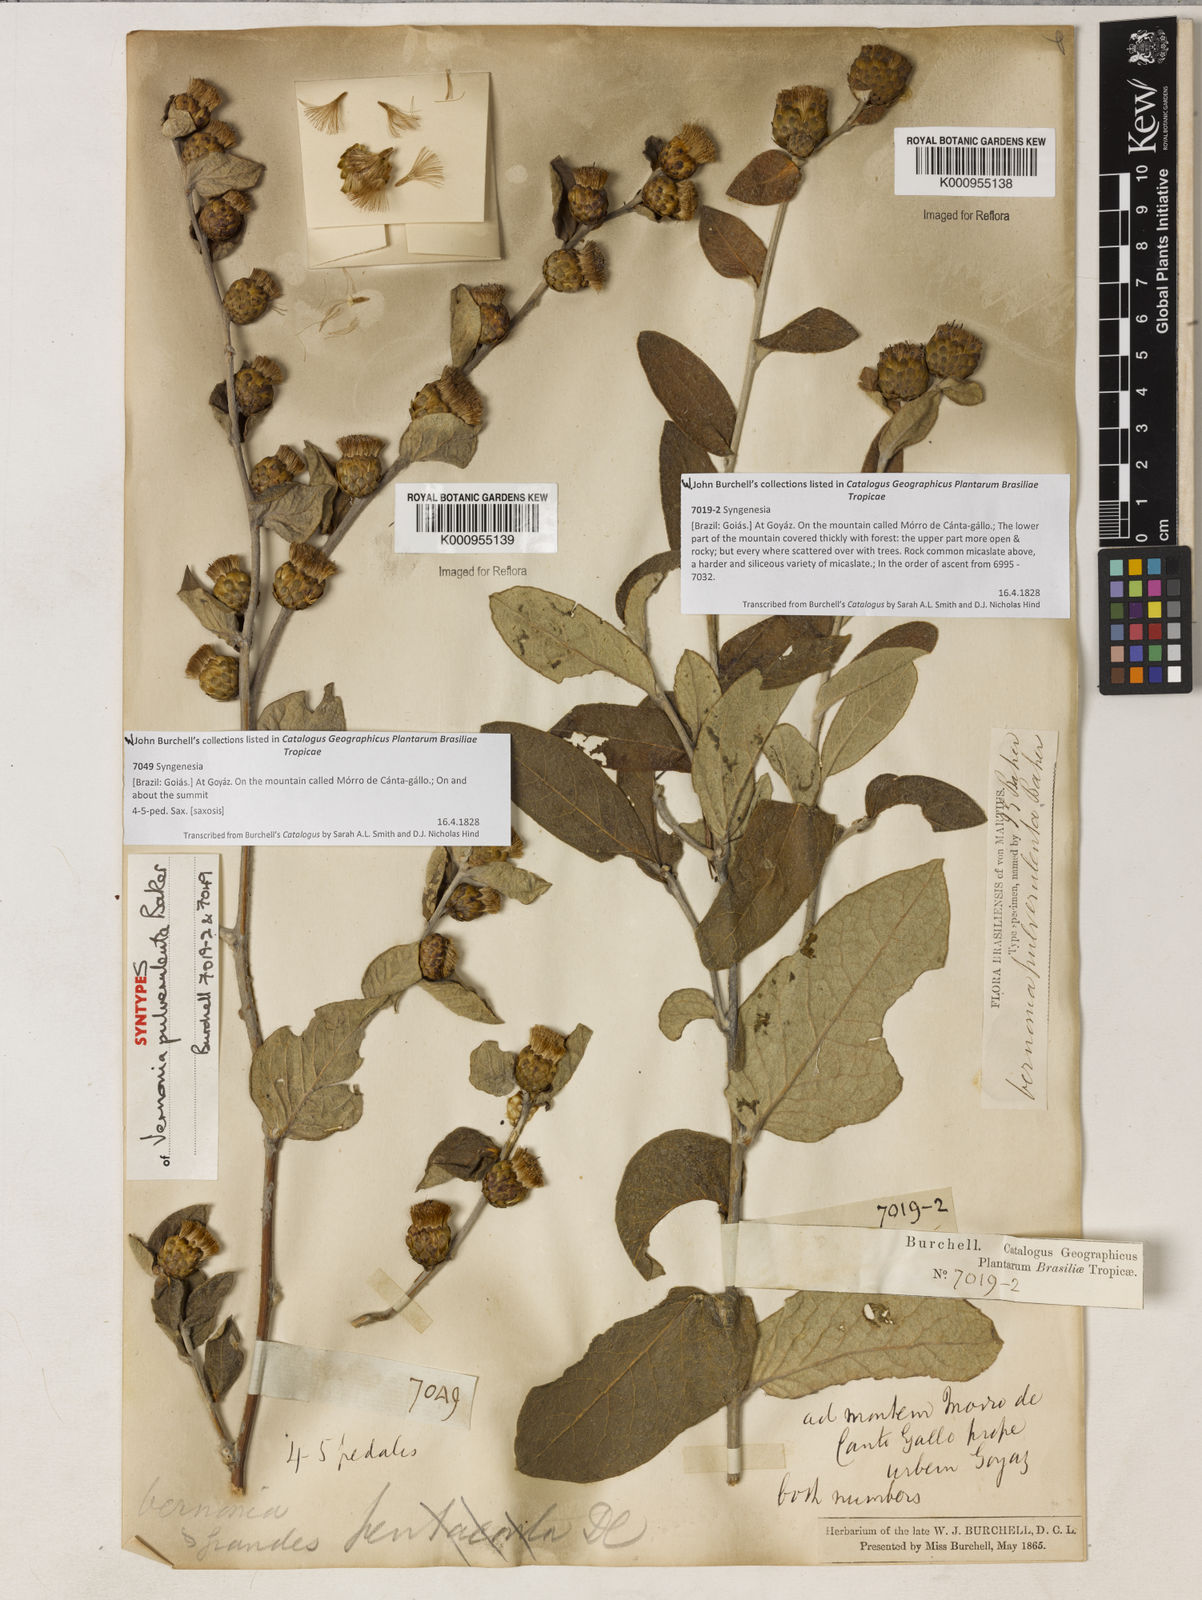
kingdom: Plantae
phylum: Tracheophyta
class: Magnoliopsida
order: Asterales
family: Asteraceae
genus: Lessingianthus
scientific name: Lessingianthus pulverulentus
